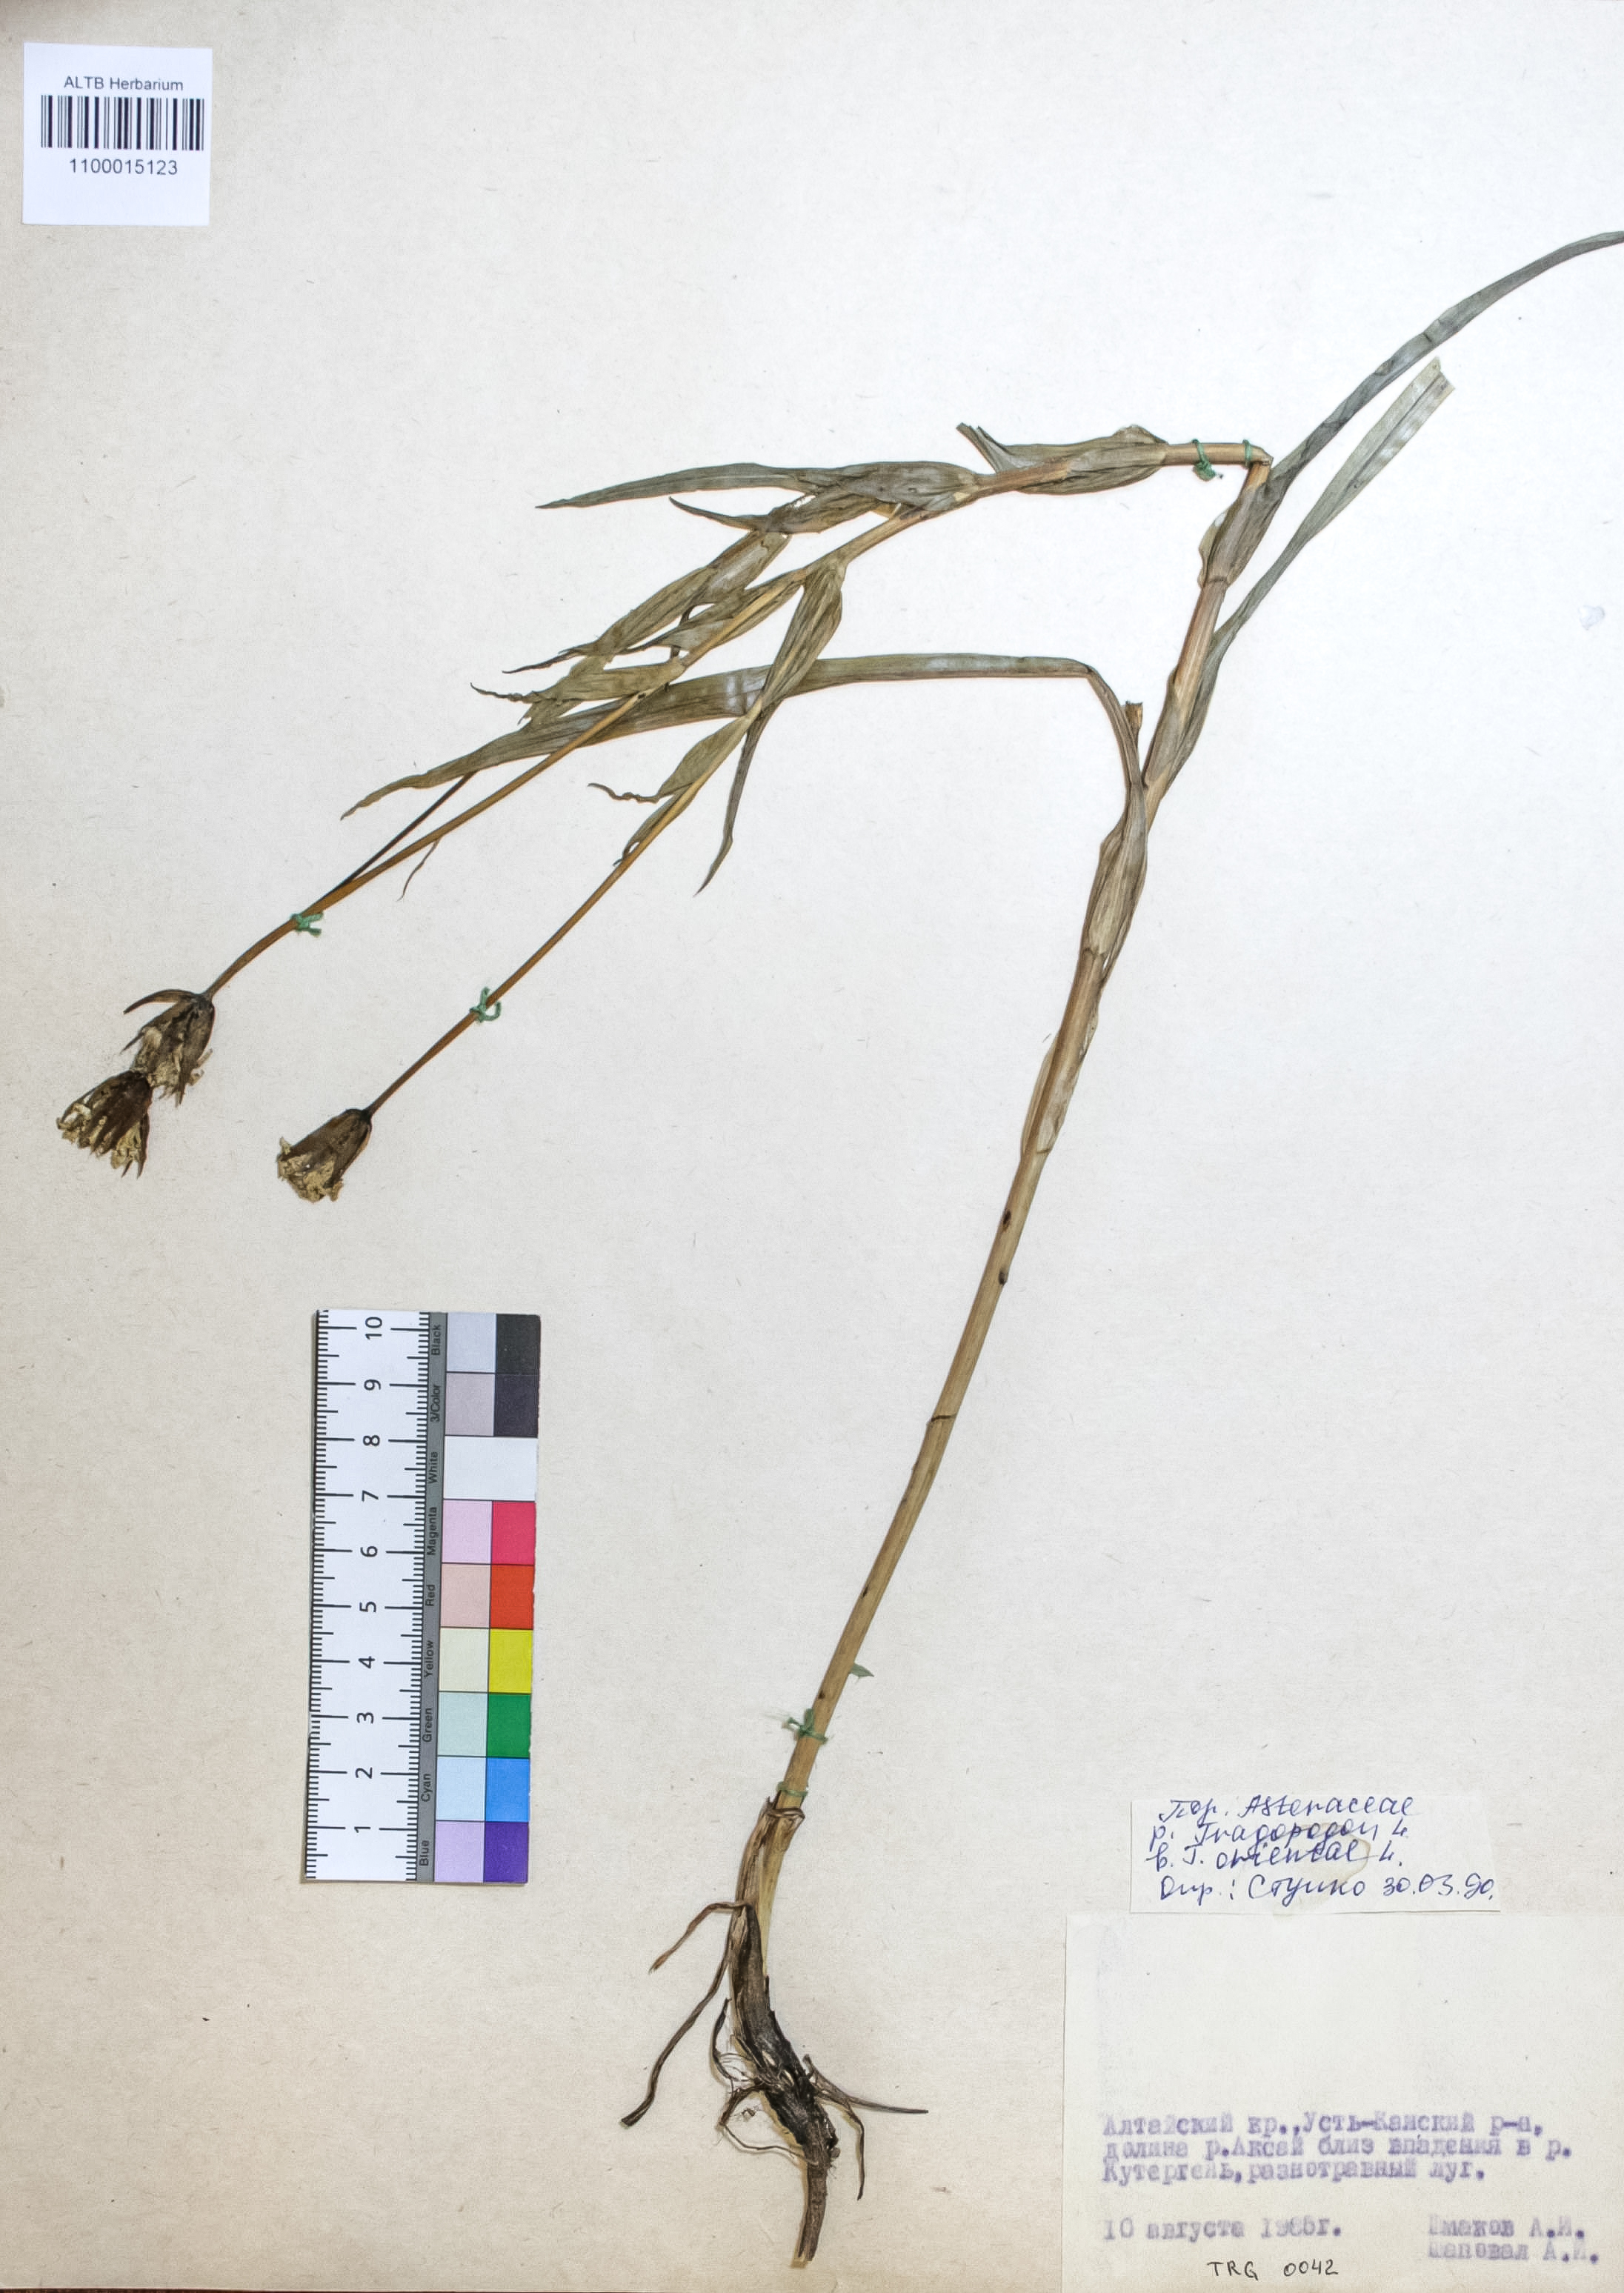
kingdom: Plantae
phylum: Tracheophyta
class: Magnoliopsida
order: Asterales
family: Asteraceae
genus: Tragopogon
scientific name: Tragopogon orientalis
